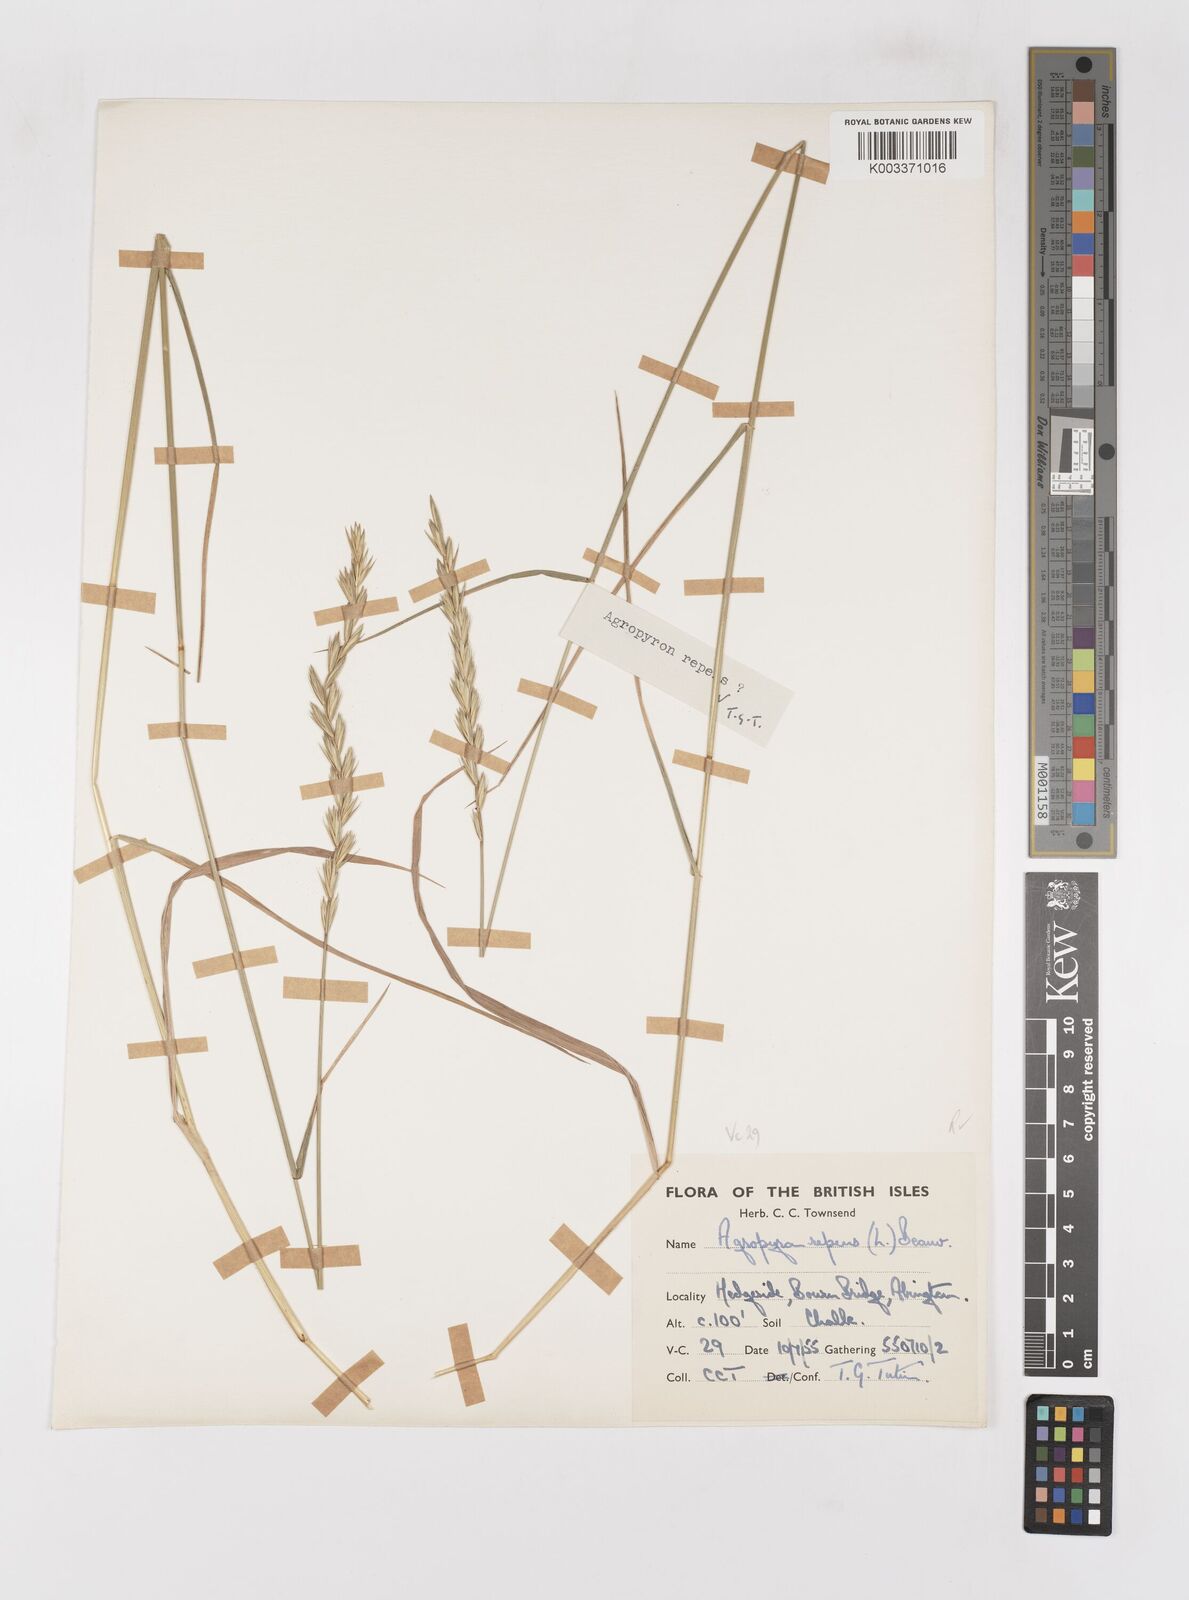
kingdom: Plantae
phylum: Tracheophyta
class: Liliopsida
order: Poales
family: Poaceae
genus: Elymus
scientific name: Elymus repens
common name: Quackgrass
